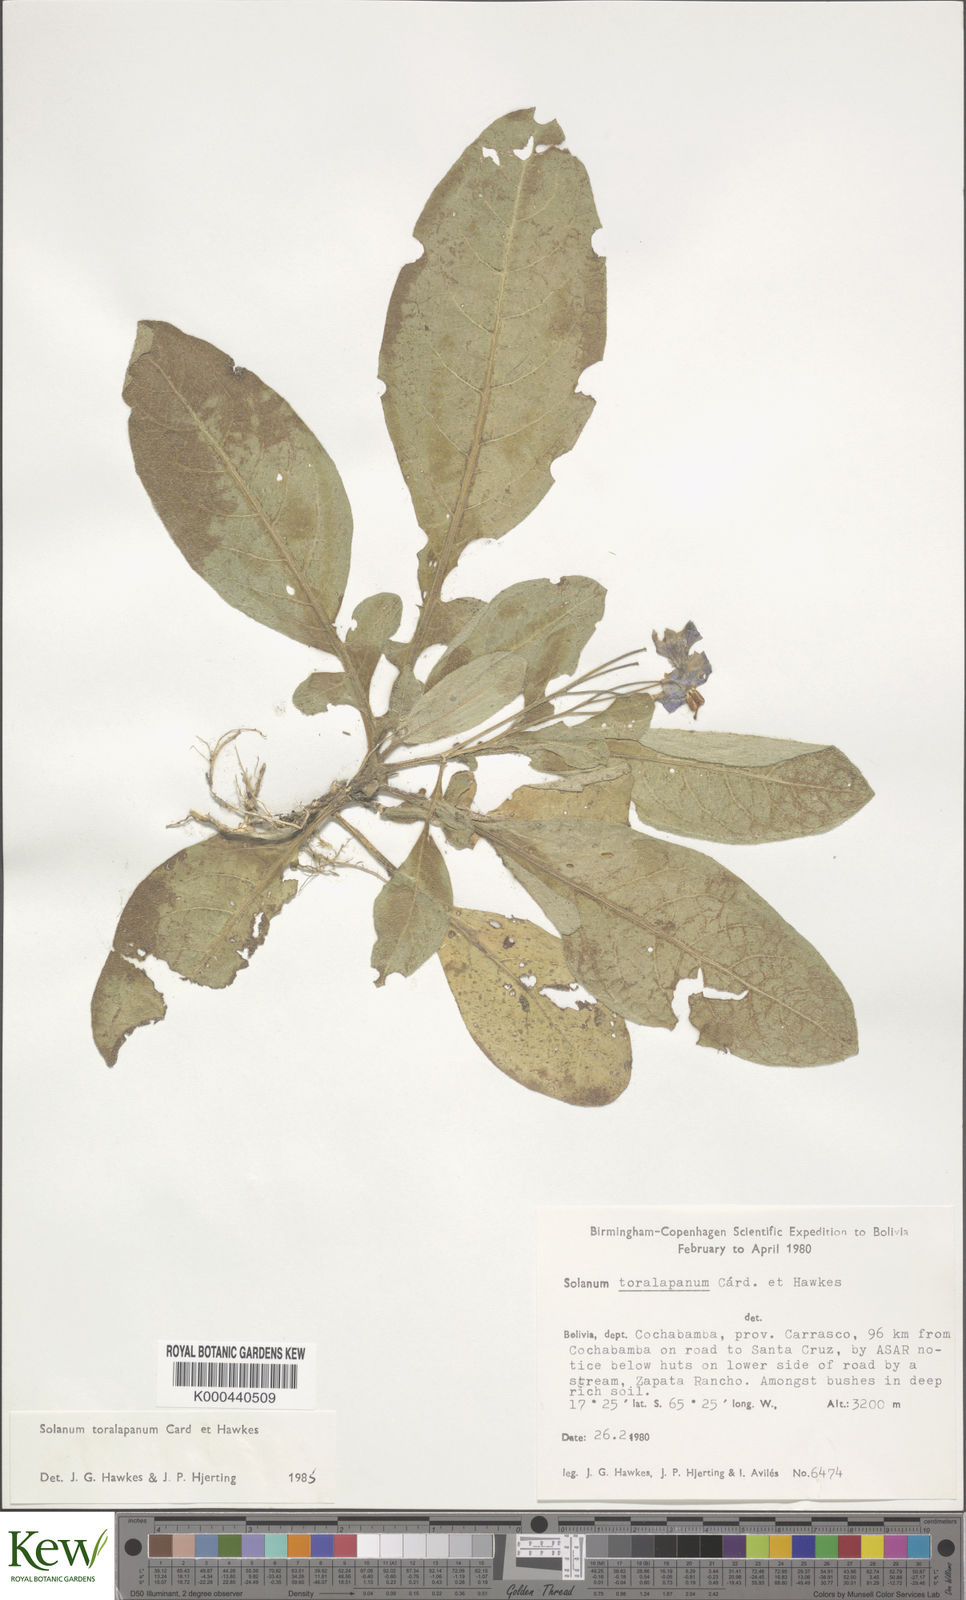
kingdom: Plantae
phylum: Tracheophyta
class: Magnoliopsida
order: Solanales
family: Solanaceae
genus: Solanum
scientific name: Solanum boliviense
